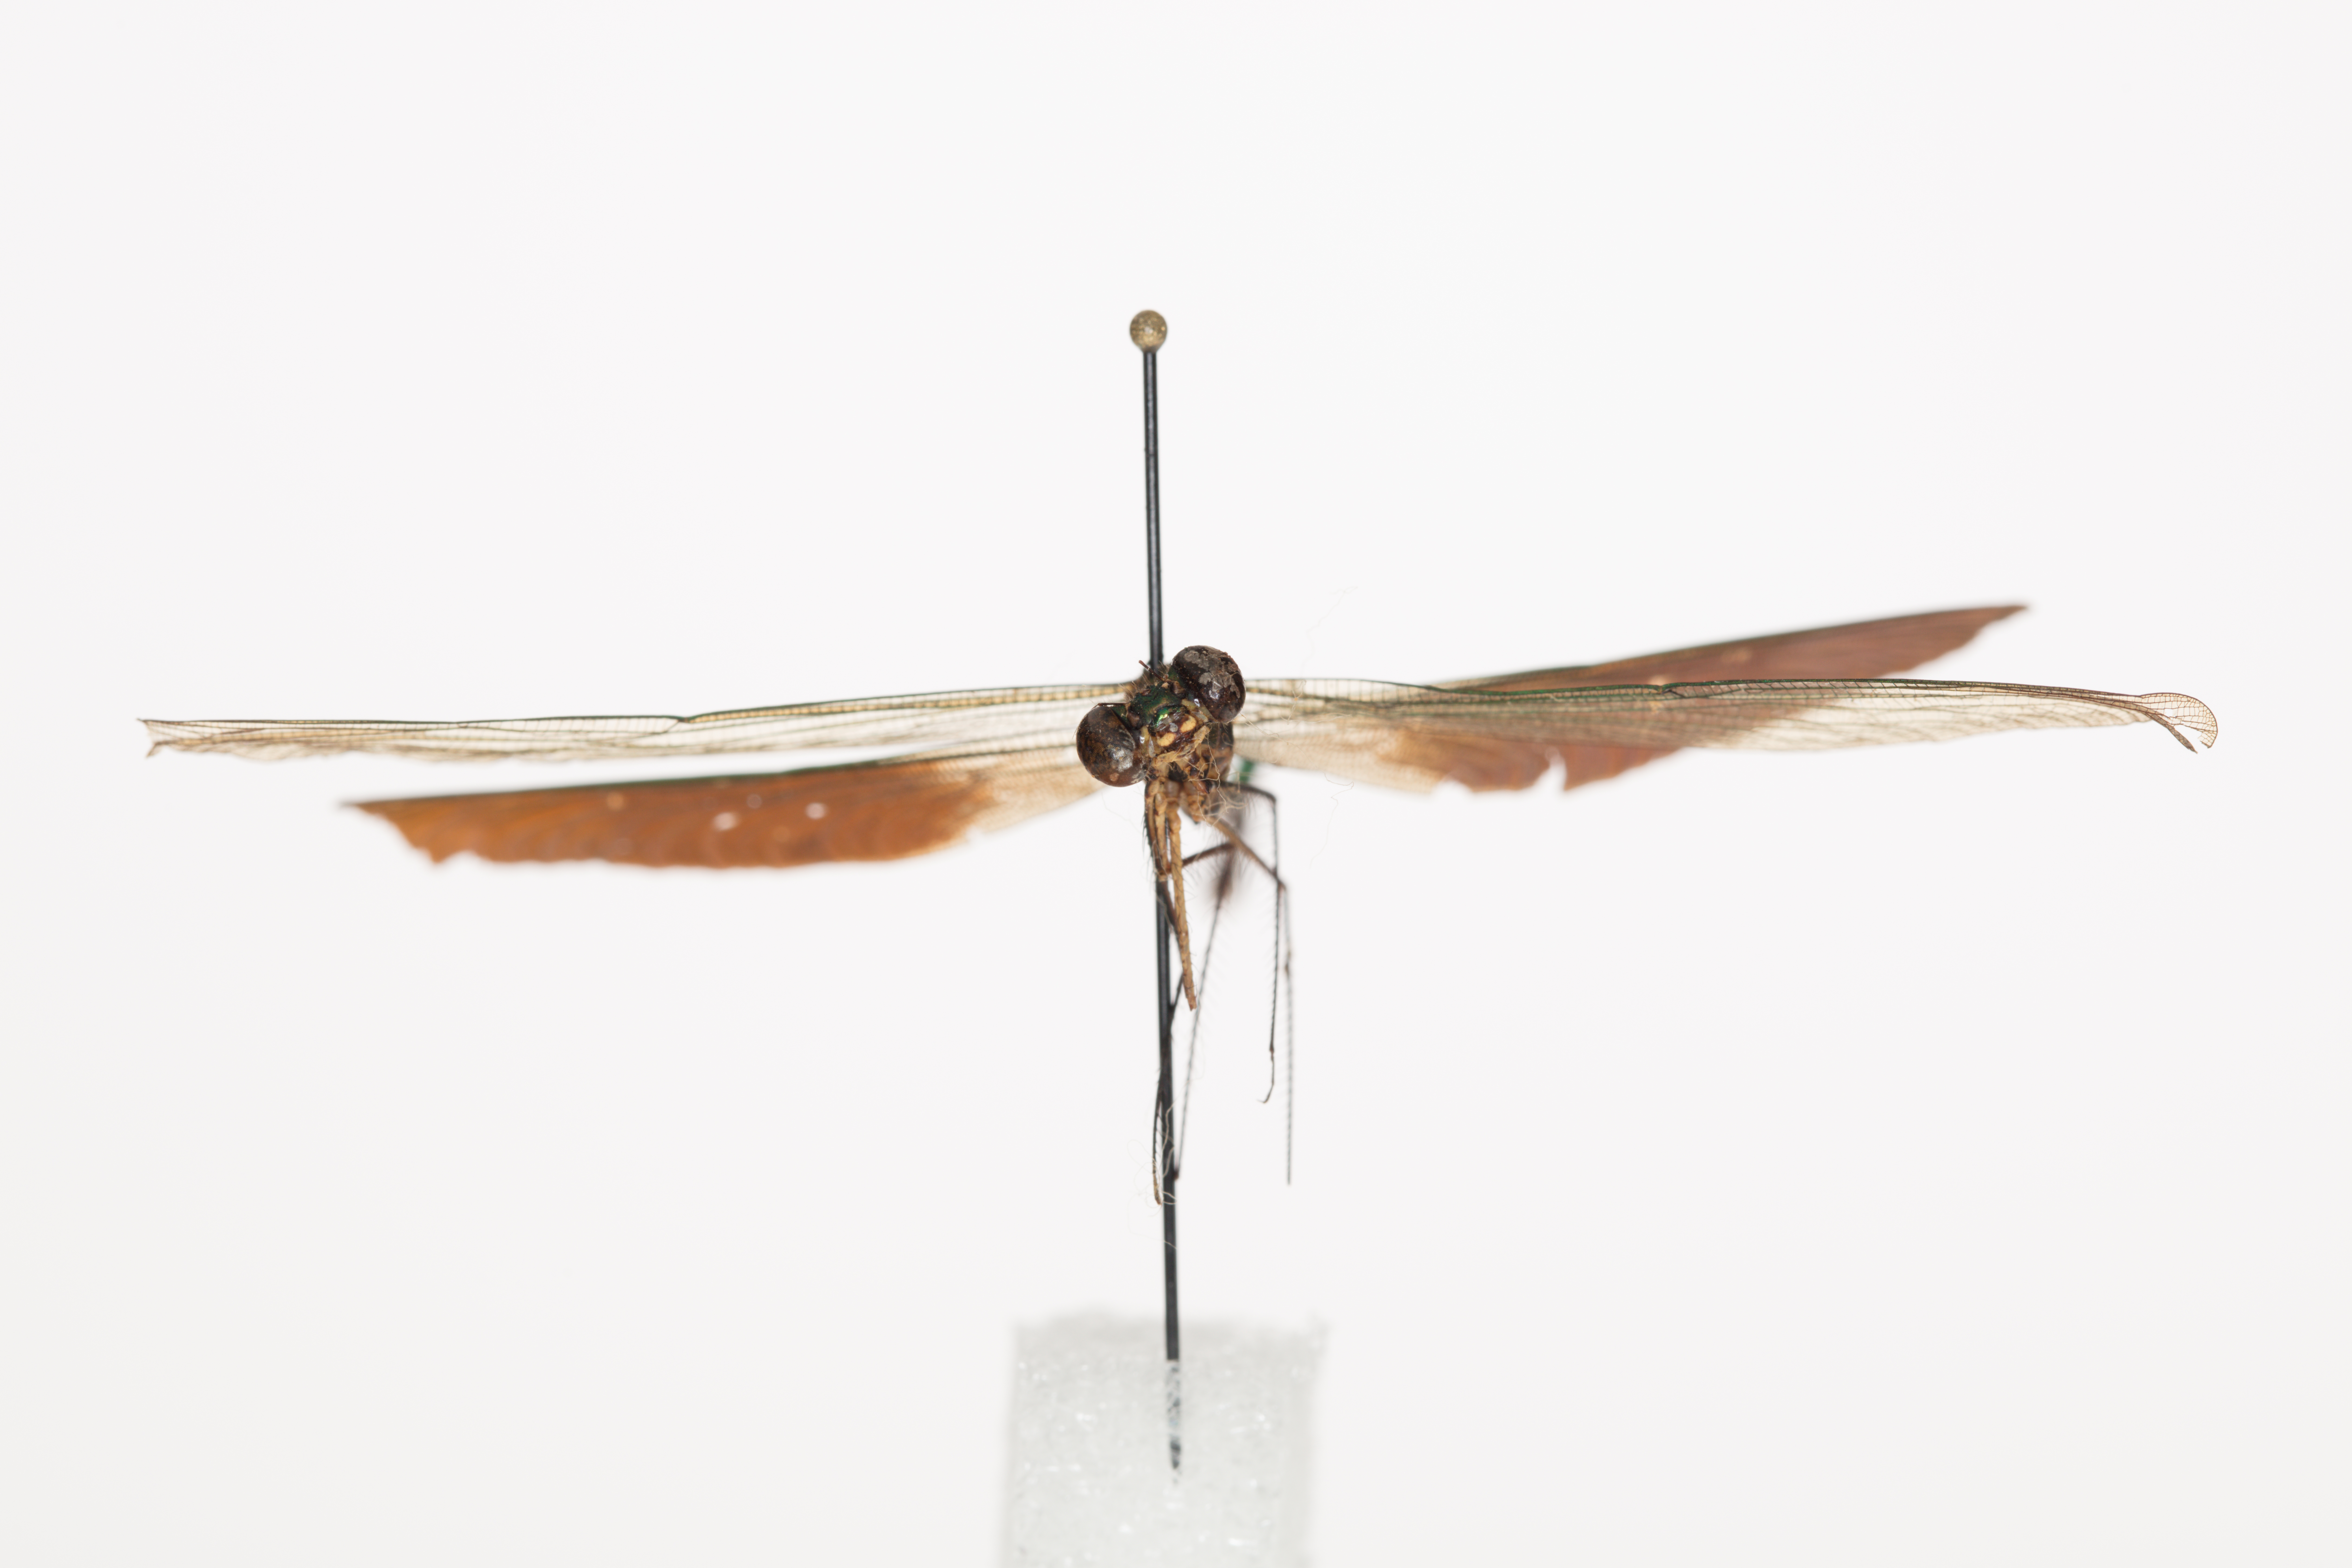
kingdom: Animalia
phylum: Arthropoda
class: Insecta
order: Odonata
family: Calopterygidae
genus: Neurobasis
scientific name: Neurobasis longipes
